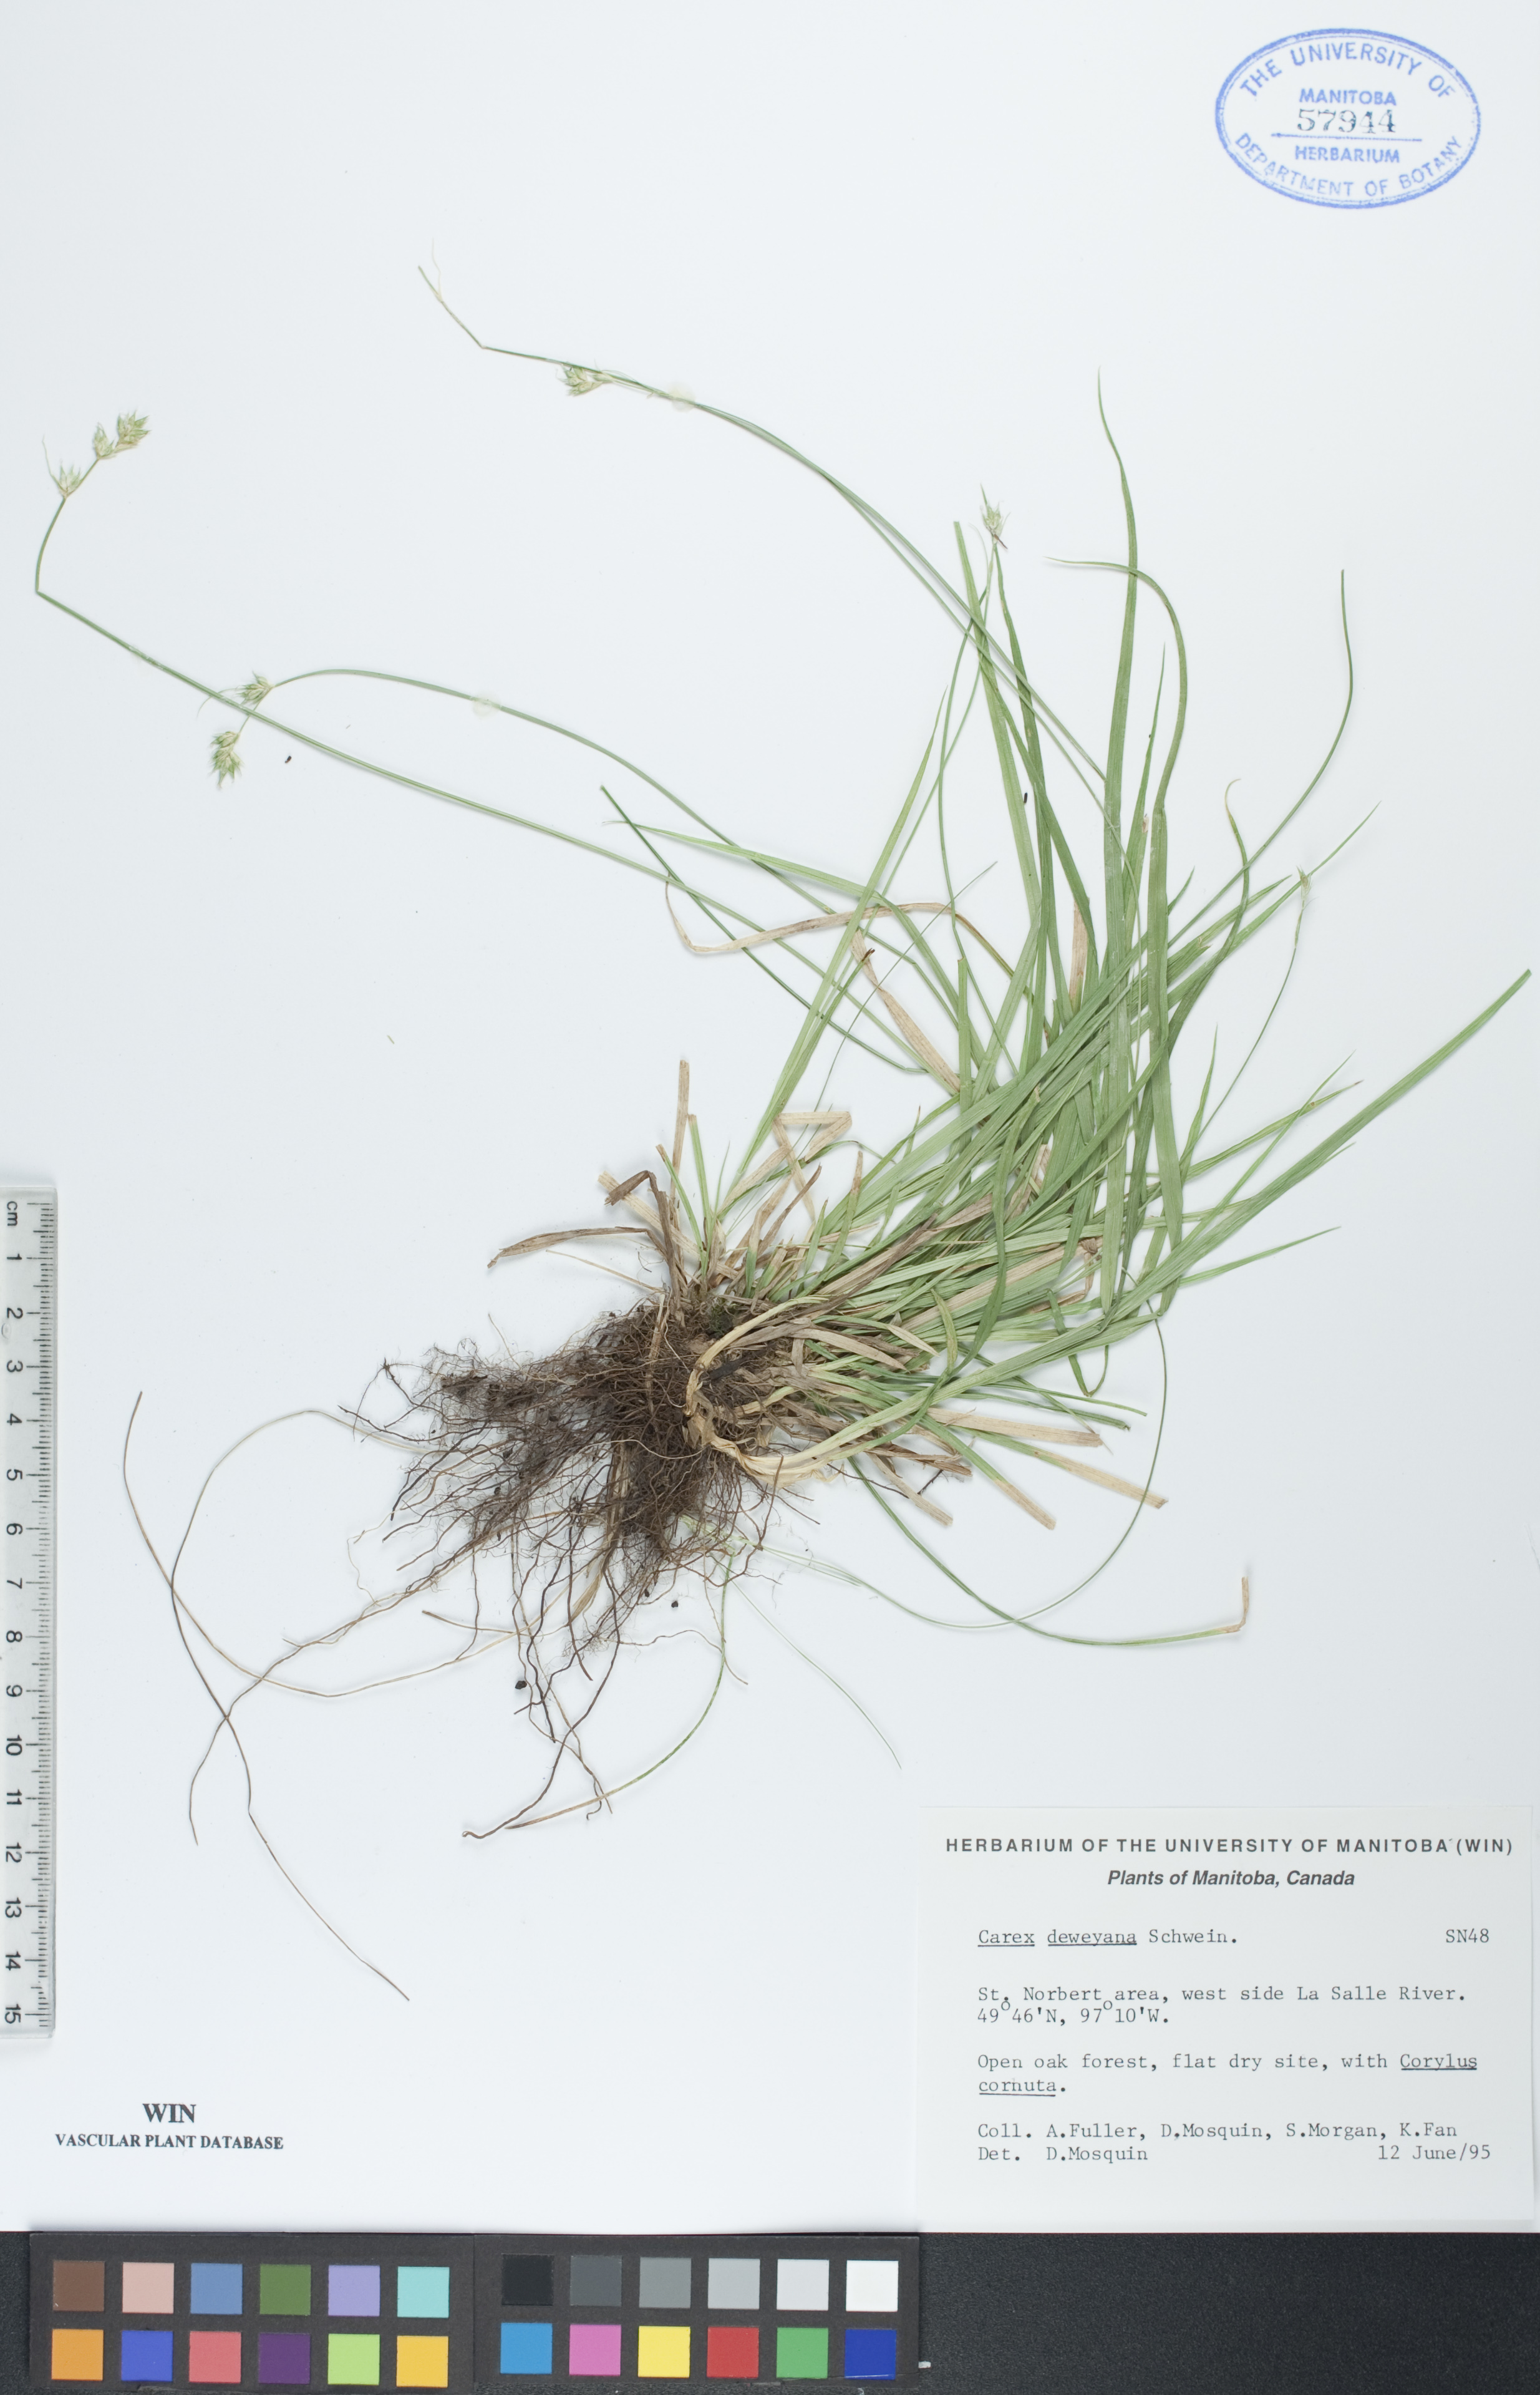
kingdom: Plantae
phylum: Tracheophyta
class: Liliopsida
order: Poales
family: Cyperaceae
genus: Carex
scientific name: Carex deweyana
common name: Dewey's sedge
